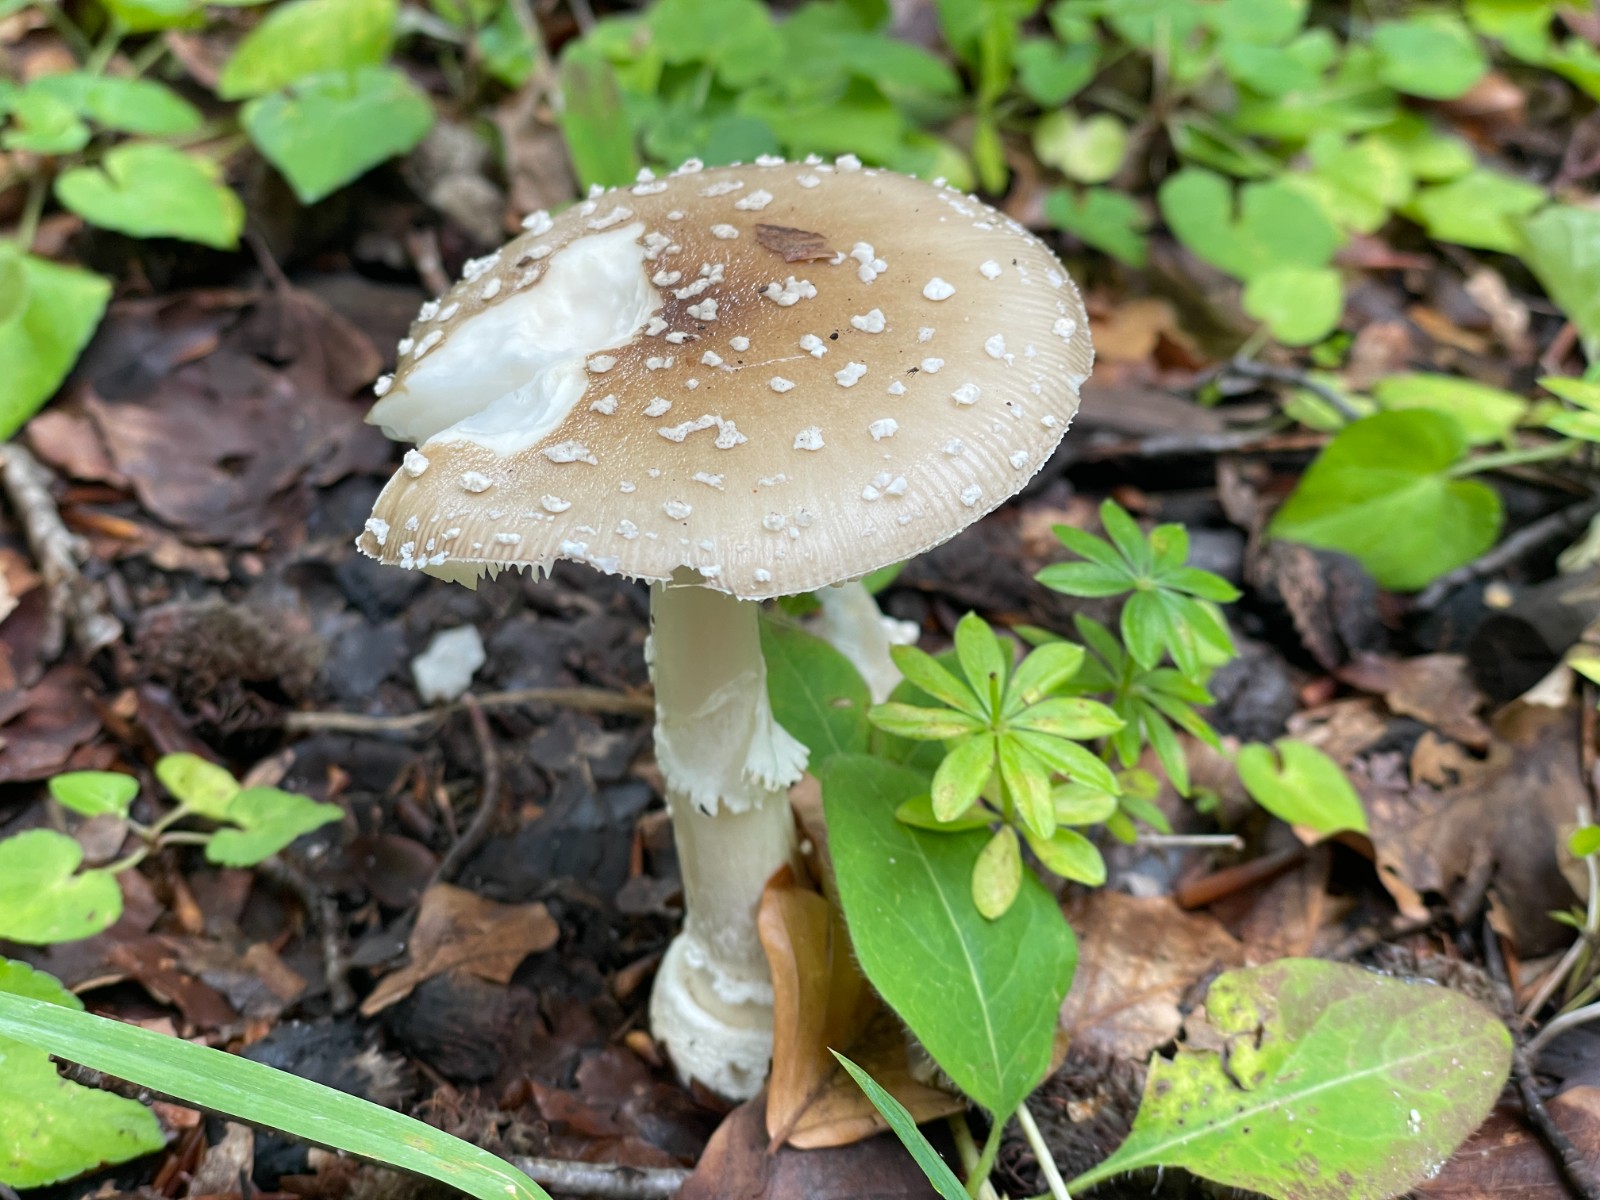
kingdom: Fungi
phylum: Basidiomycota
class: Agaricomycetes
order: Agaricales
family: Amanitaceae
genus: Amanita
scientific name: Amanita pantherina
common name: panter-fluesvamp
